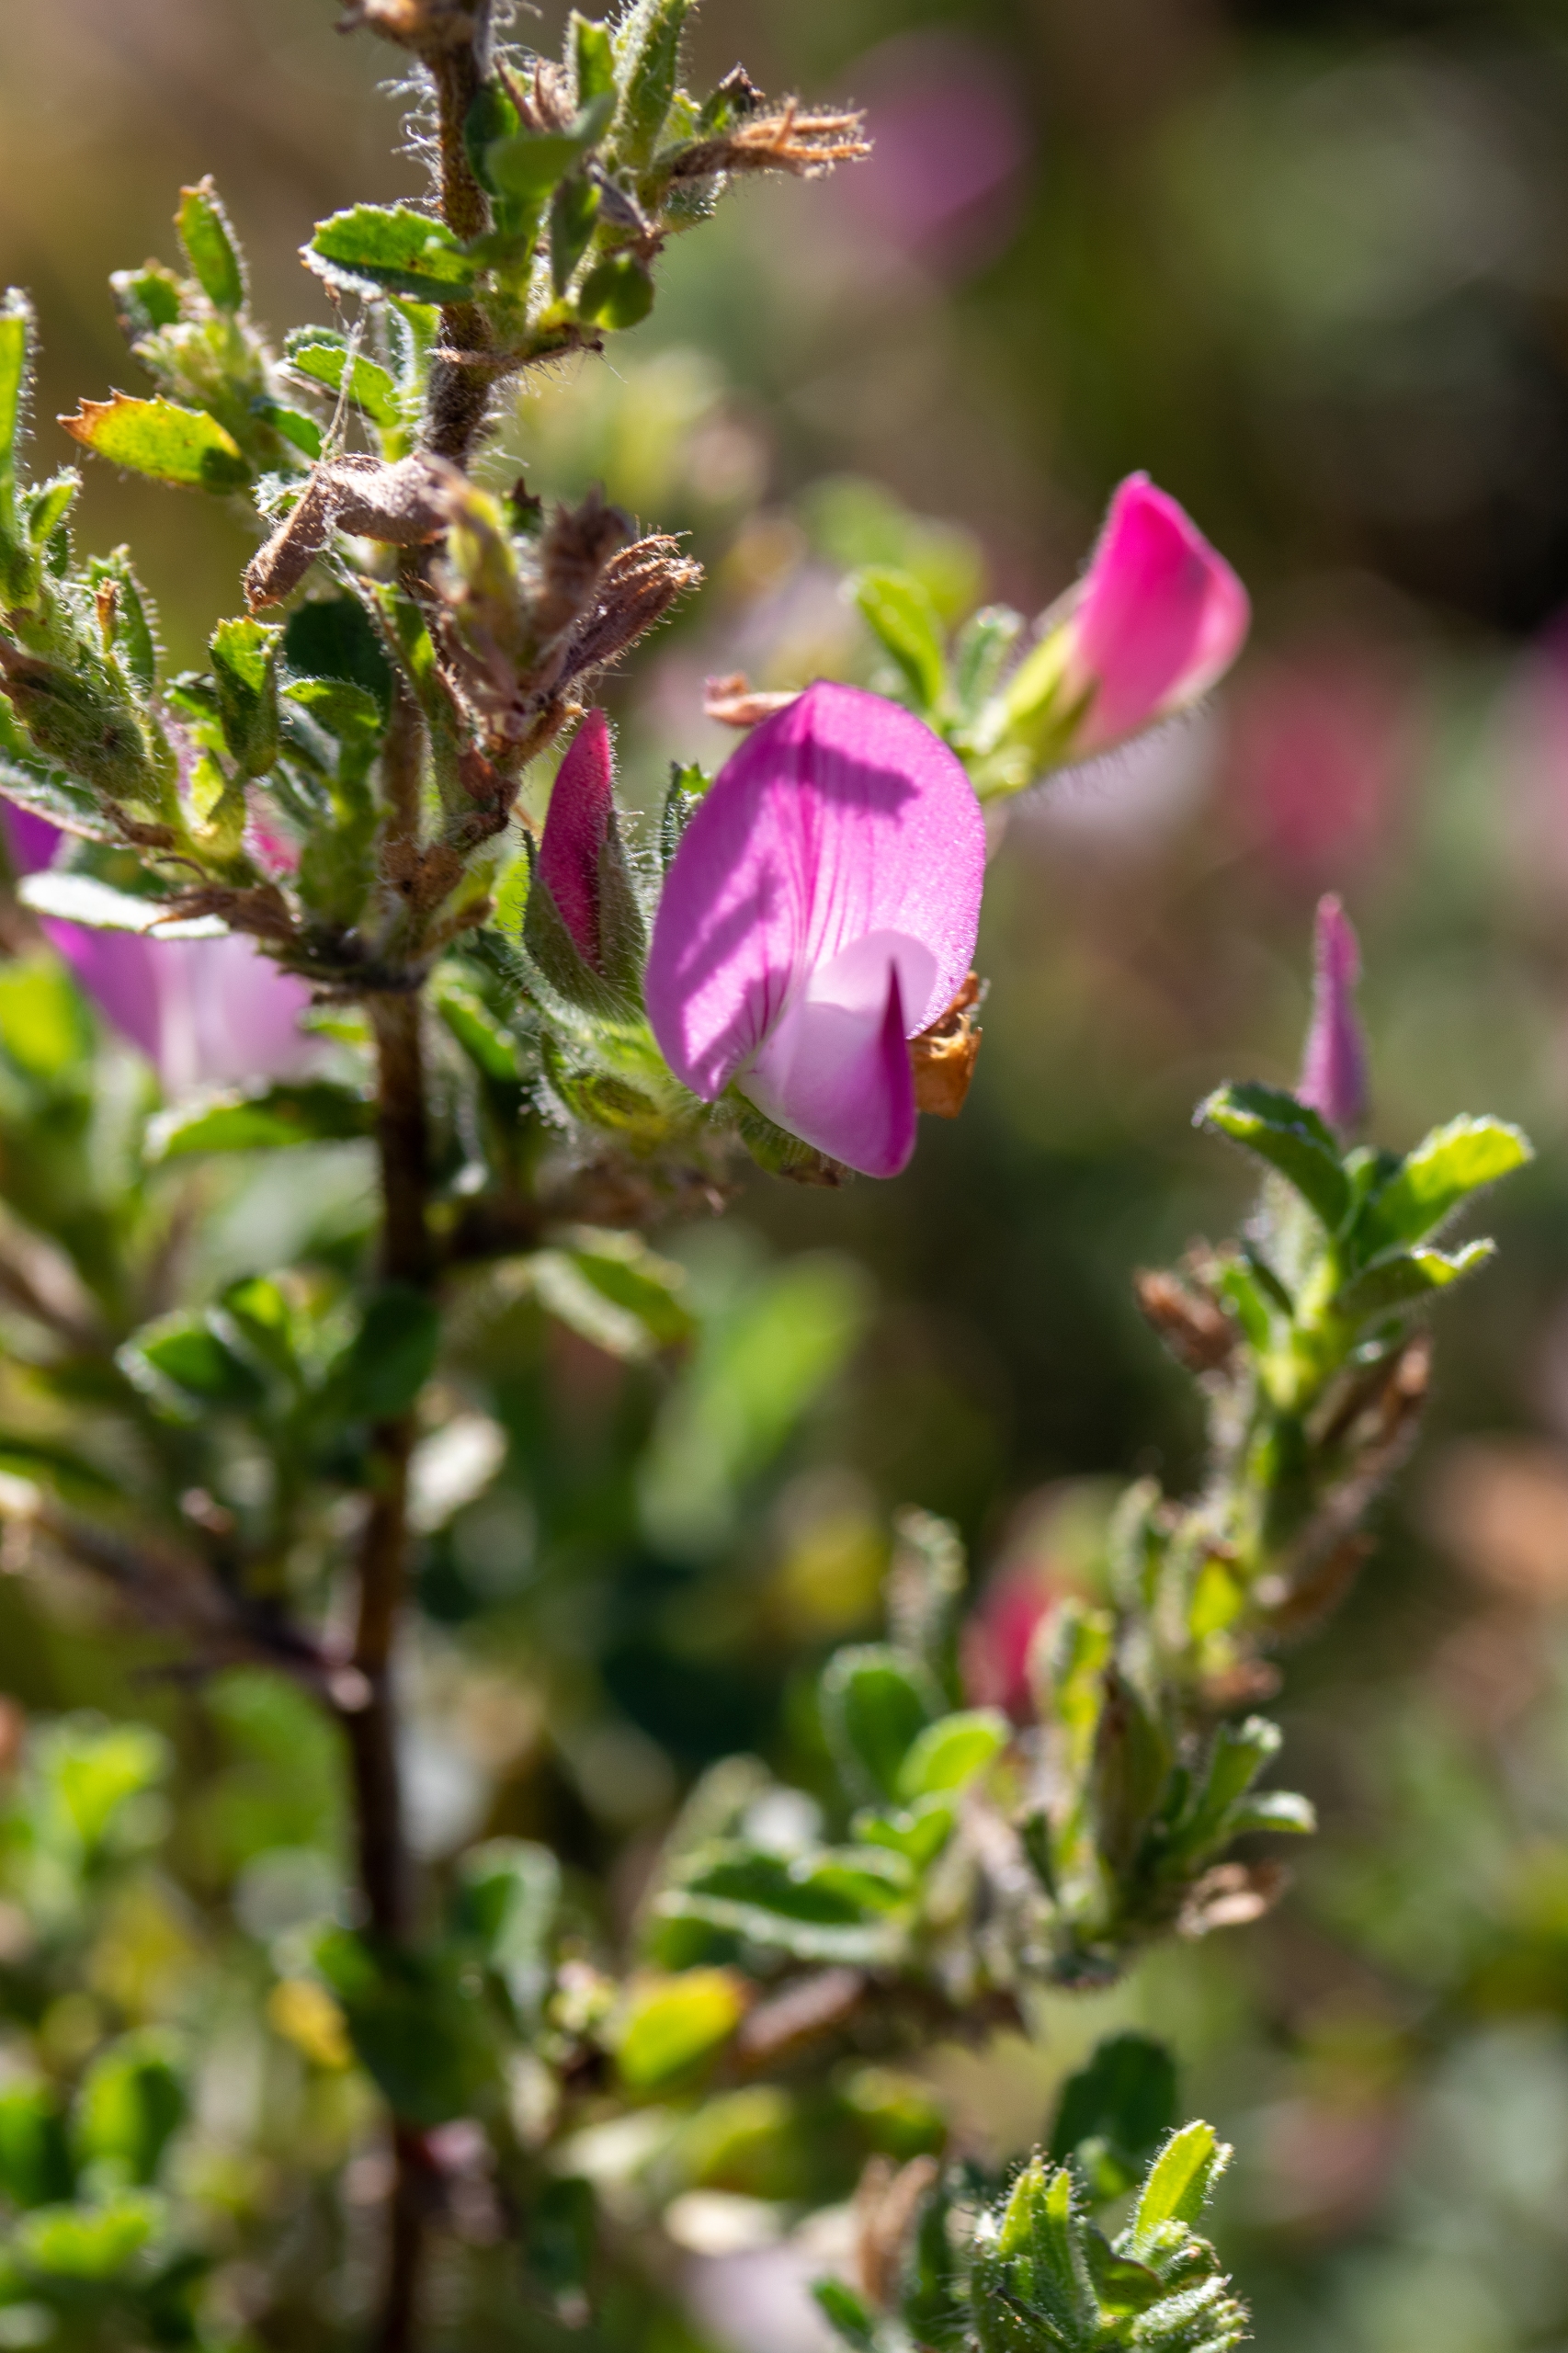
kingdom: Plantae
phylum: Tracheophyta
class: Magnoliopsida
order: Fabales
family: Fabaceae
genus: Ononis
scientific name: Ononis spinosa
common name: Mark-krageklo
